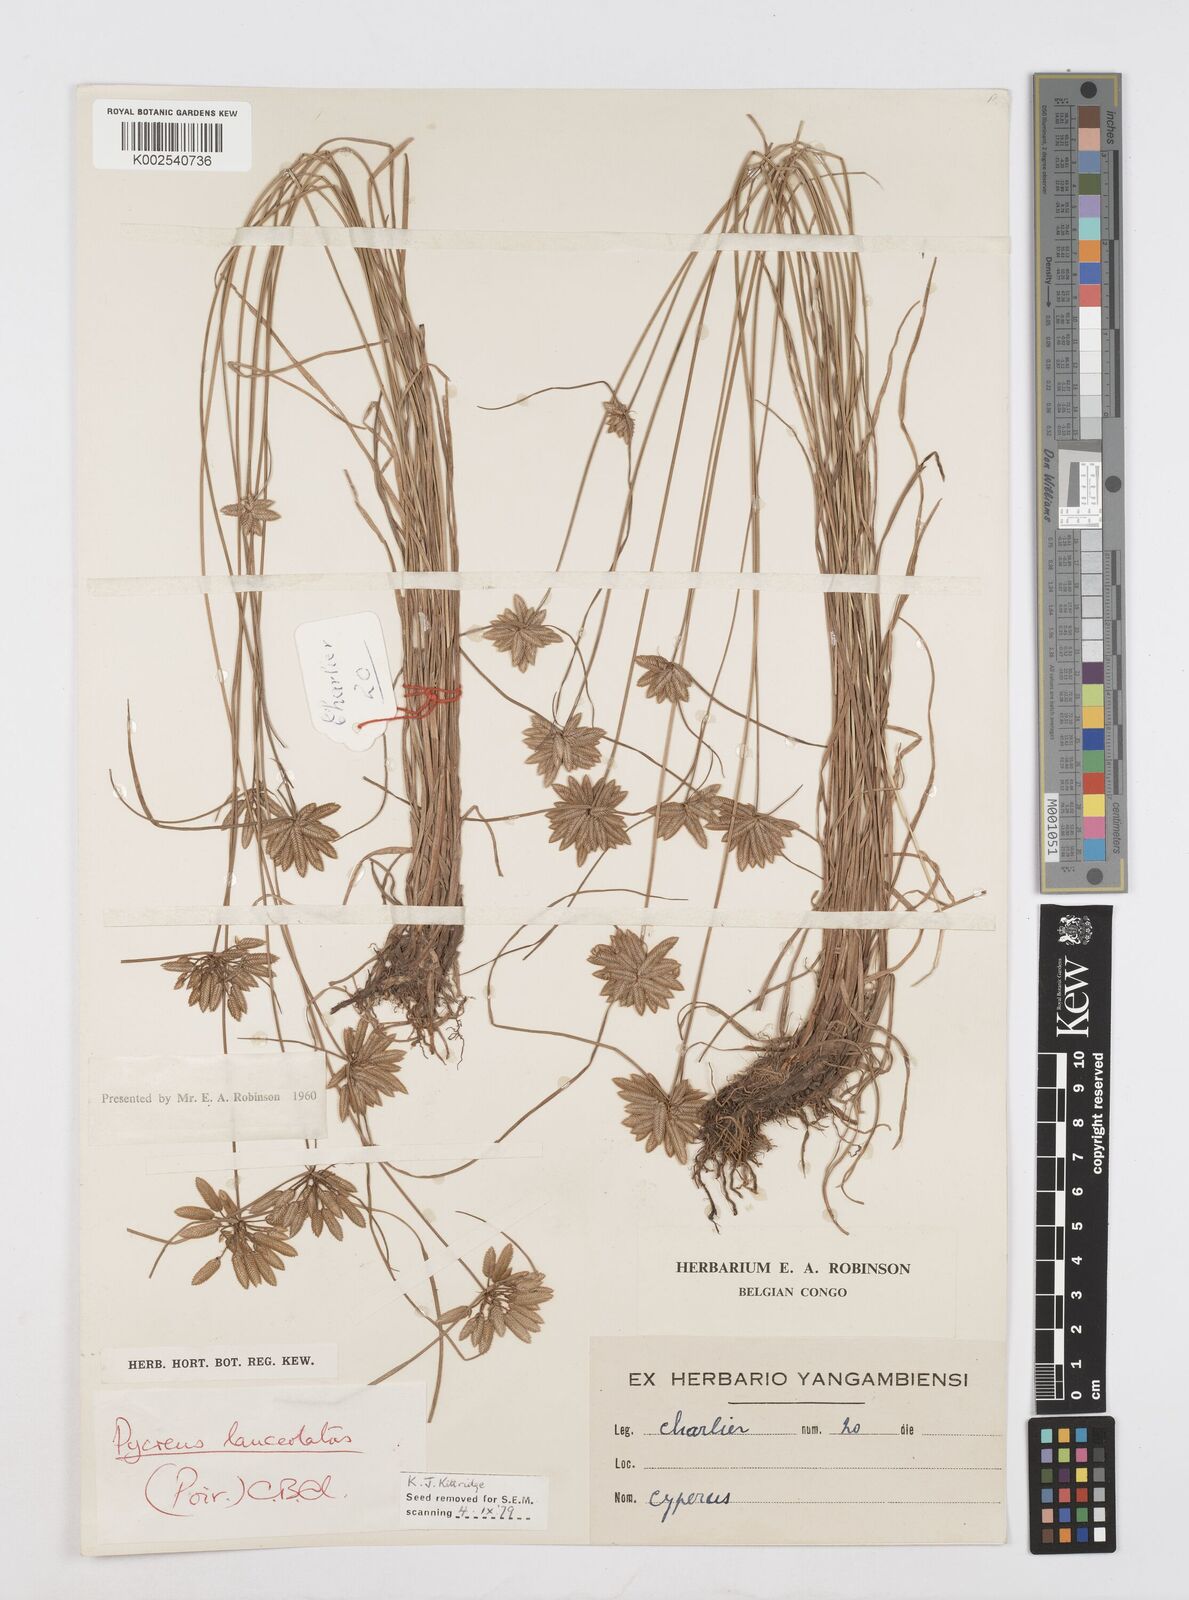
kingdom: Plantae
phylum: Tracheophyta
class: Liliopsida
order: Poales
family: Cyperaceae
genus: Cyperus
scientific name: Cyperus
